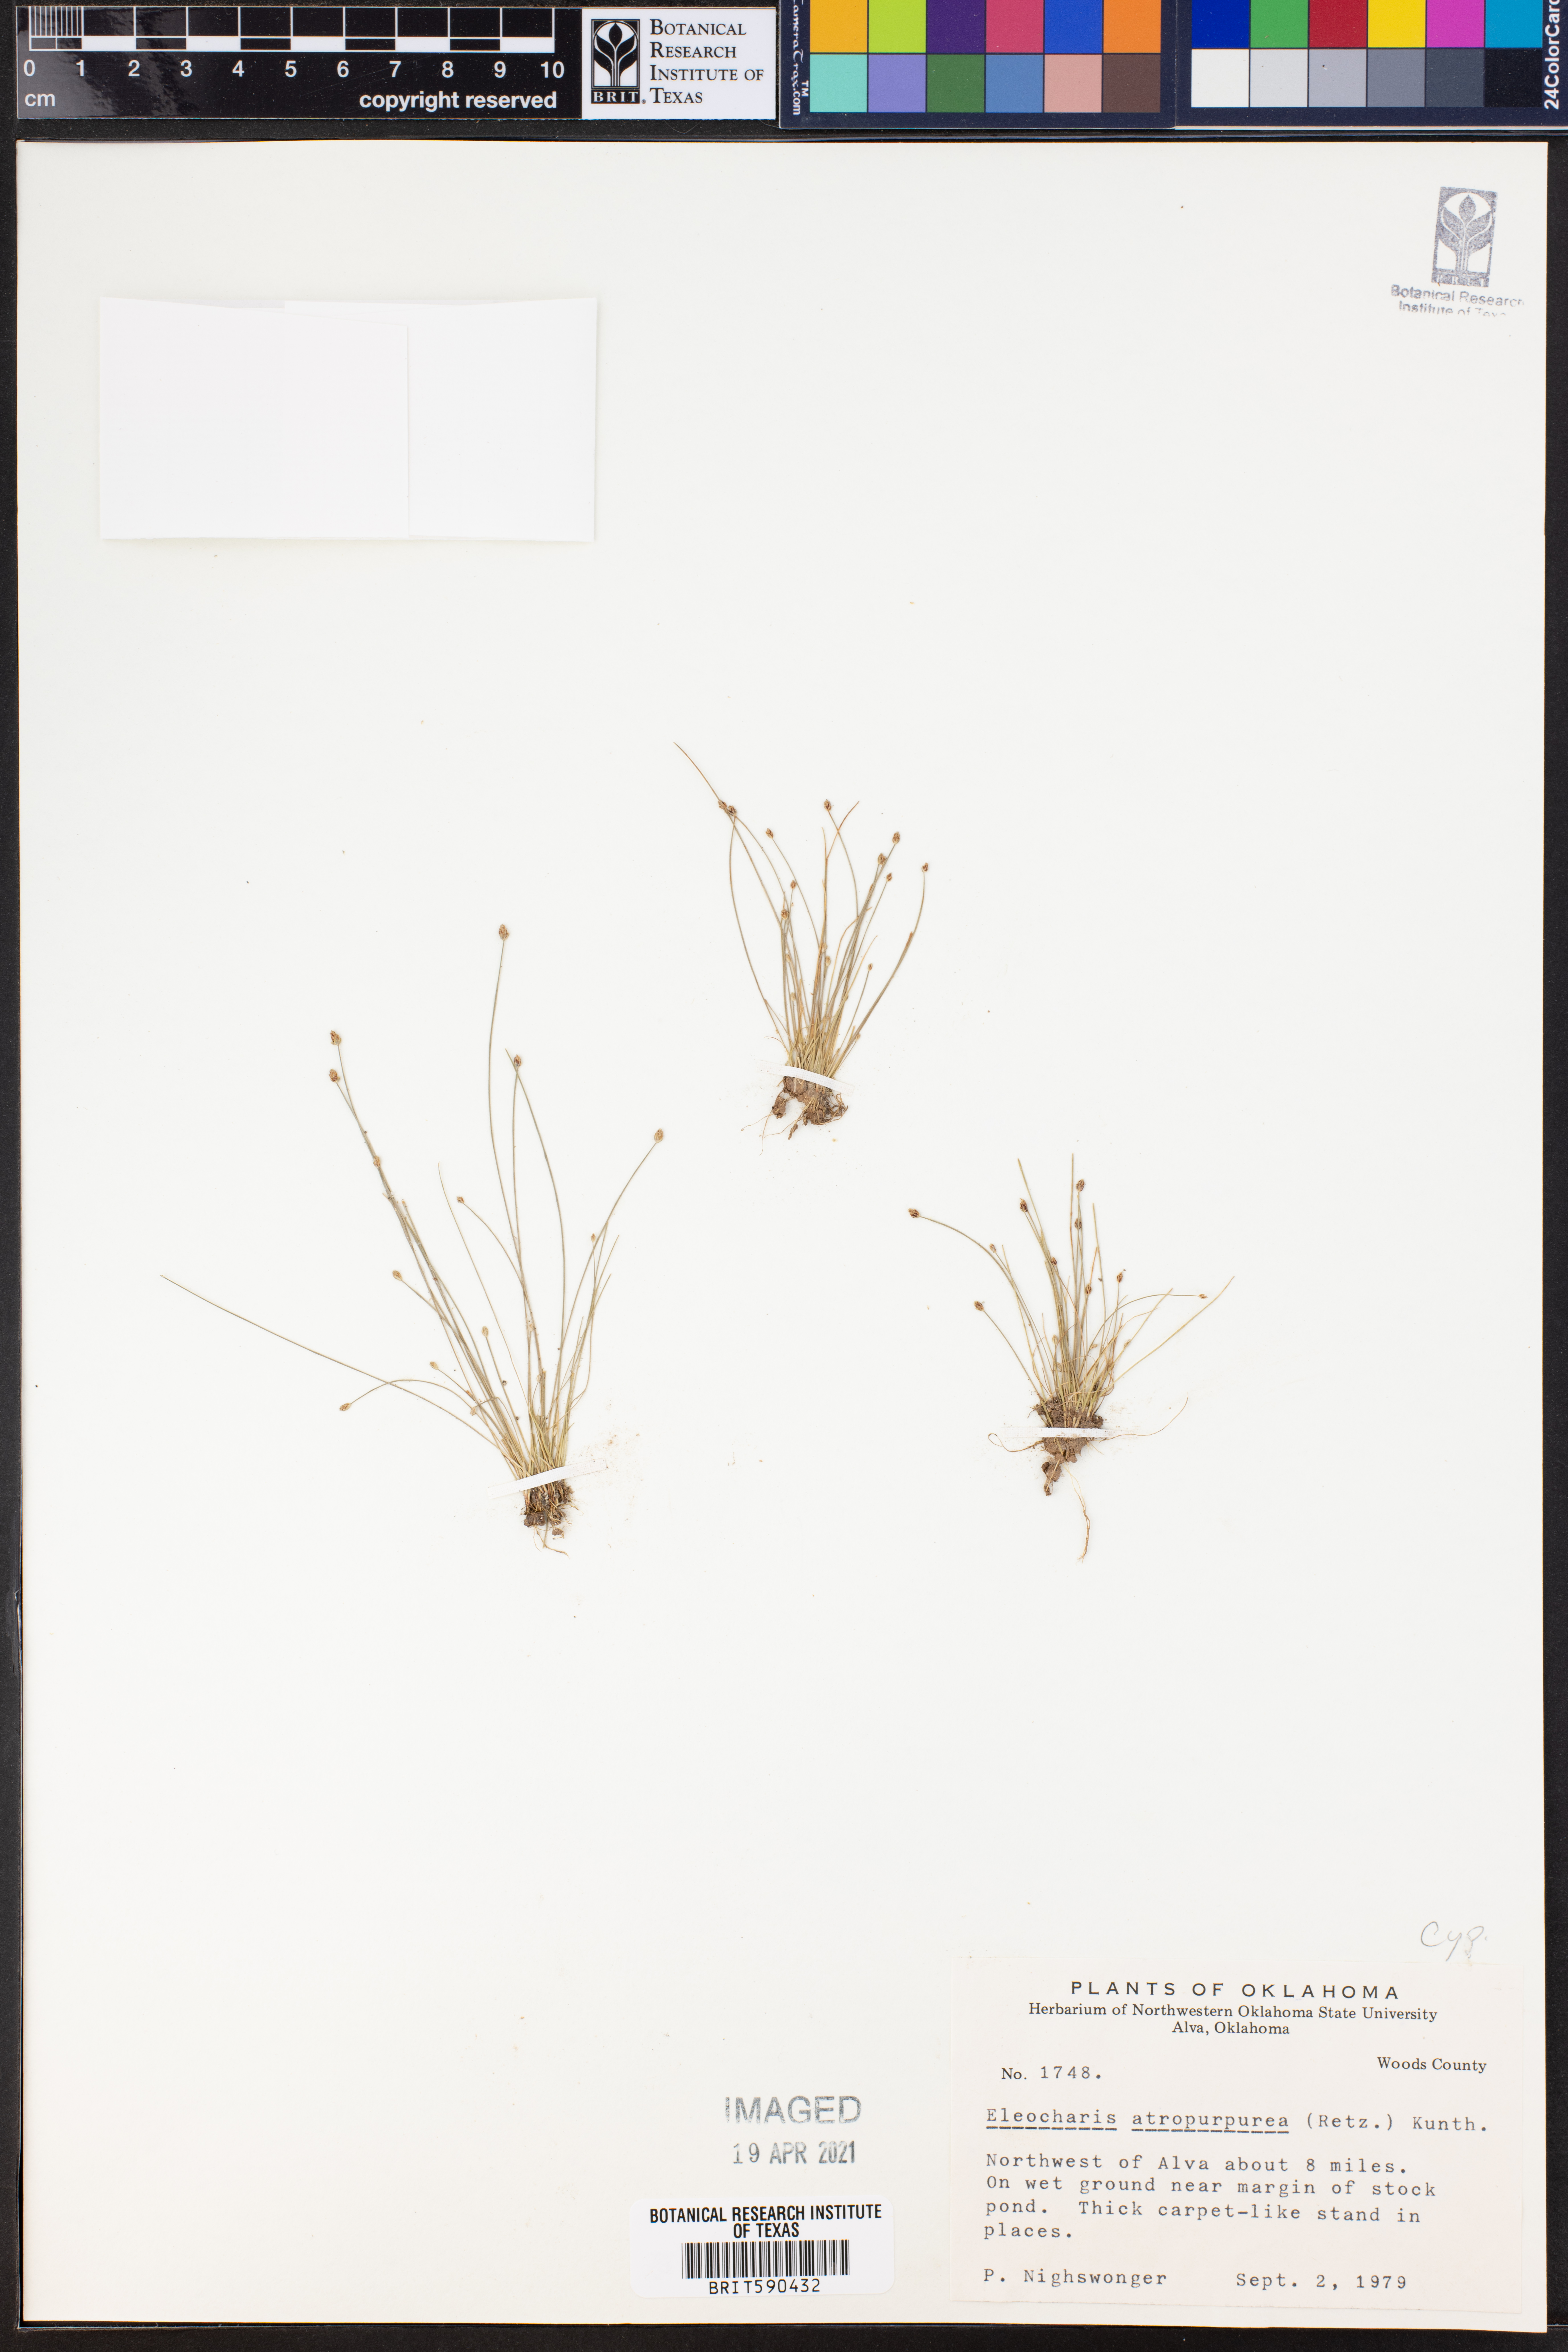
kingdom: Plantae
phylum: Tracheophyta
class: Liliopsida
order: Poales
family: Cyperaceae
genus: Eleocharis
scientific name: Eleocharis atropurpurea
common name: Purple spikerush
